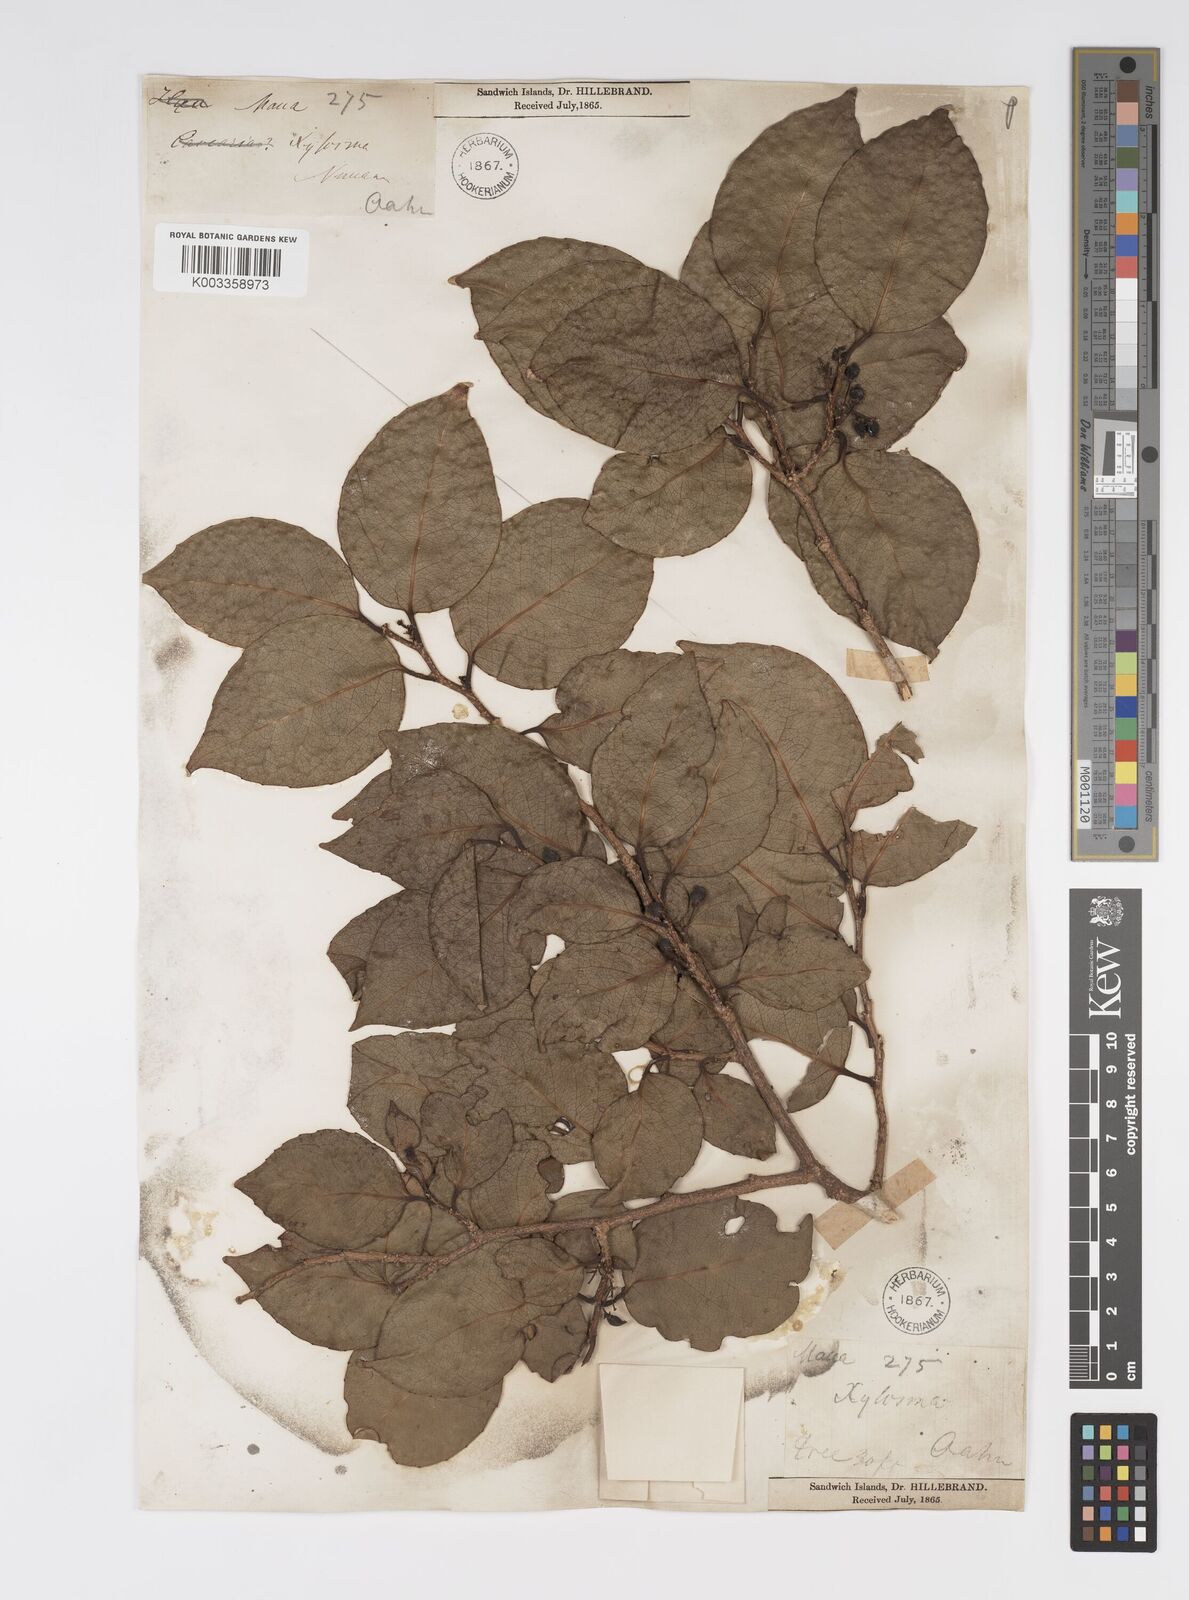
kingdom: Plantae
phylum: Tracheophyta
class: Magnoliopsida
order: Malpighiales
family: Salicaceae
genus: Xylosma
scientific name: Xylosma hawaiense
